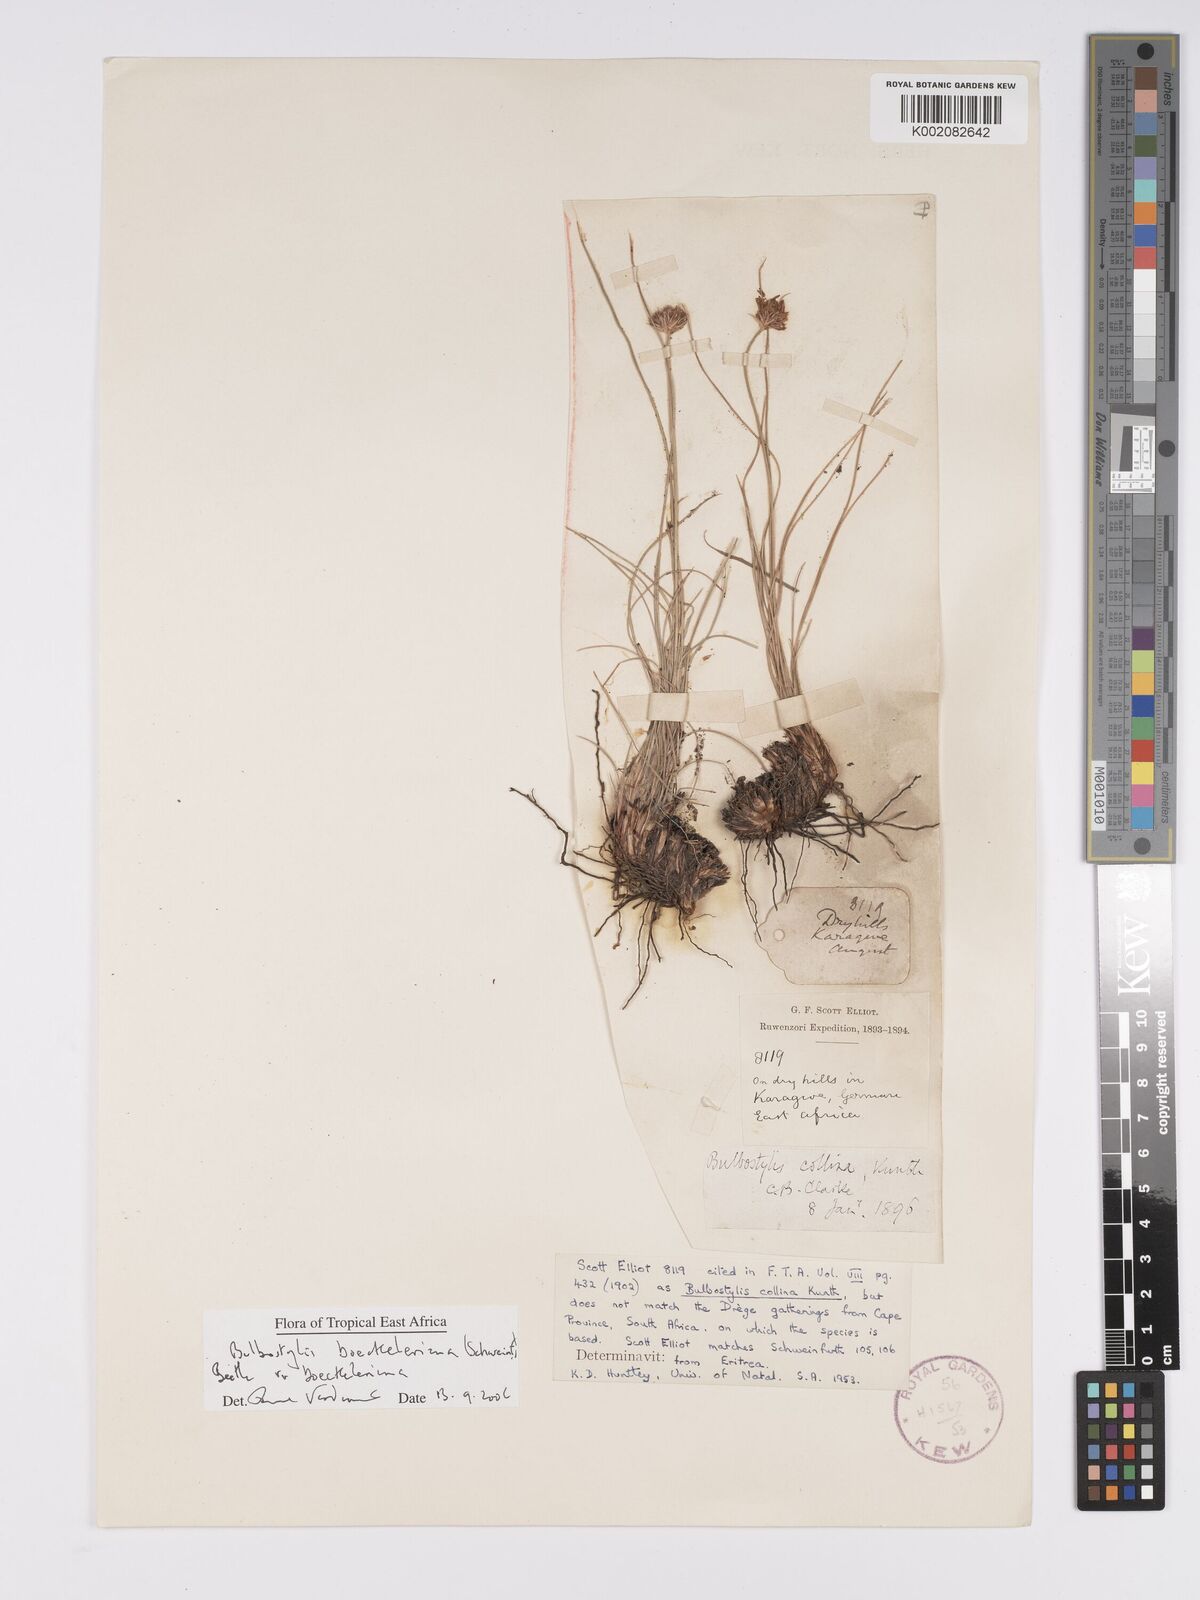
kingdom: Plantae
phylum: Tracheophyta
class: Liliopsida
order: Poales
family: Cyperaceae
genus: Bulbostylis
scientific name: Bulbostylis boeckeleriana
